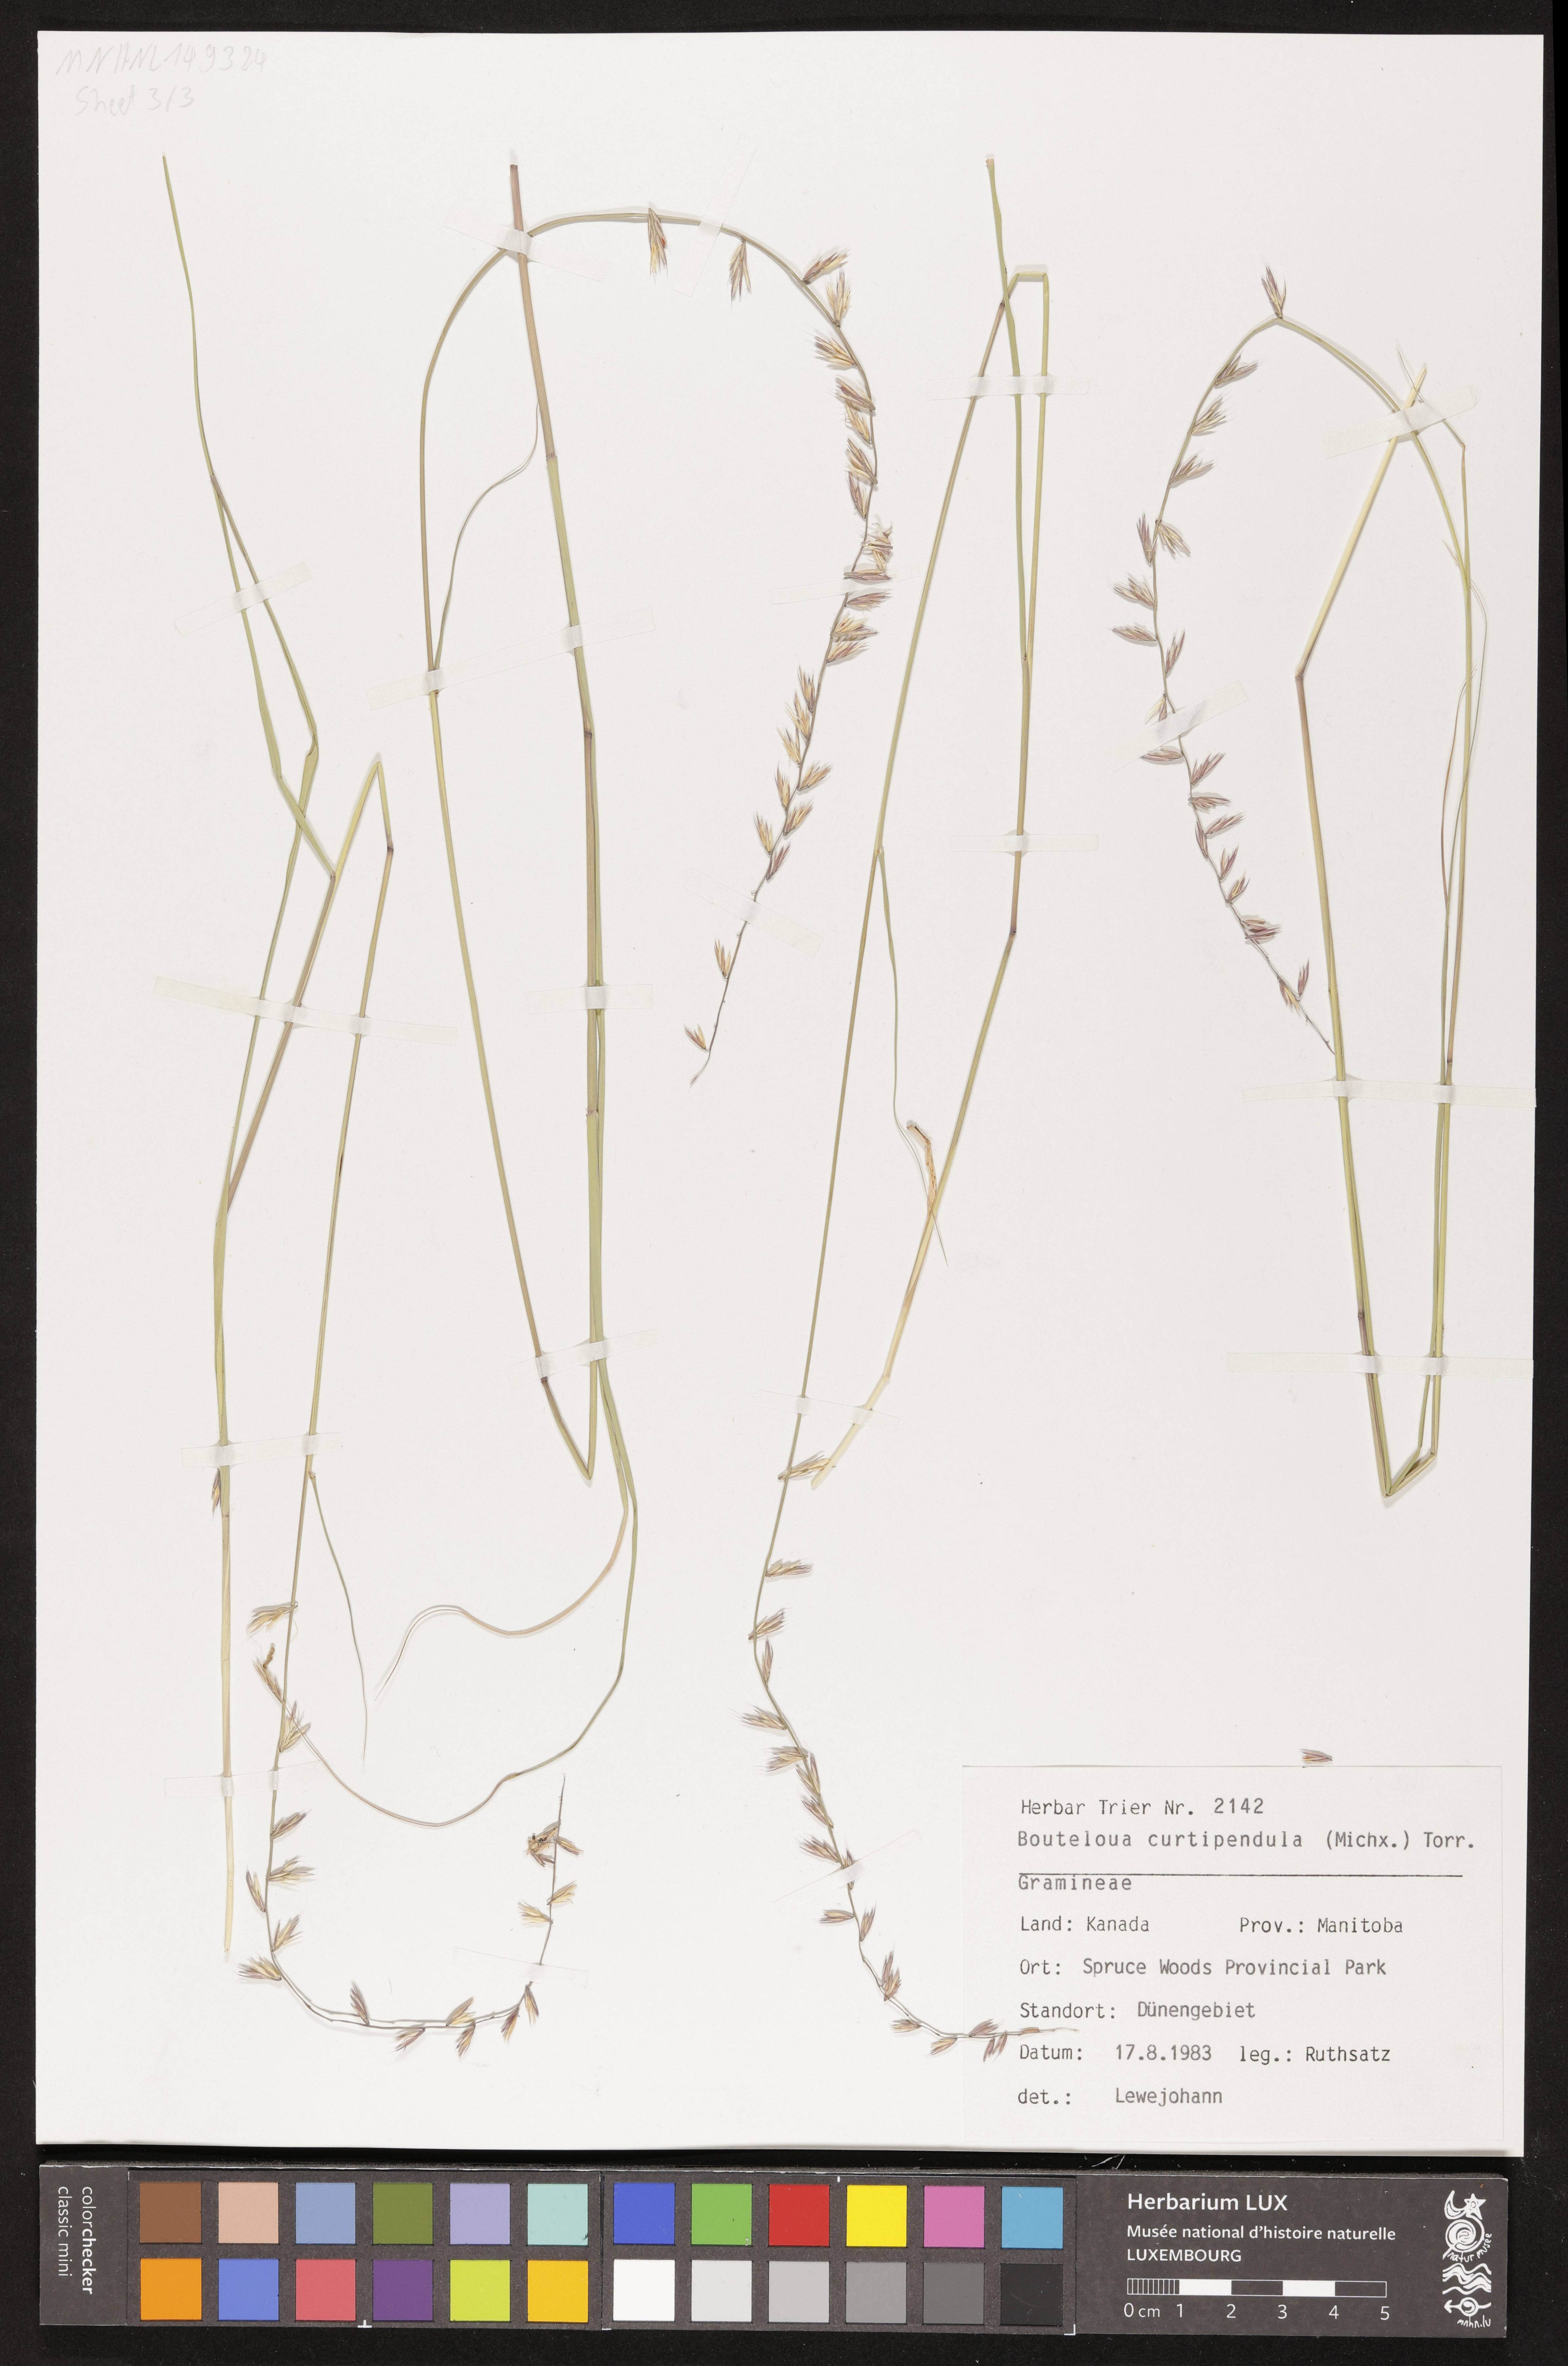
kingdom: Plantae
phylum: Tracheophyta
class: Liliopsida
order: Poales
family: Poaceae
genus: Bouteloua
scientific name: Bouteloua curtipendula
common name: Side-oats grama
